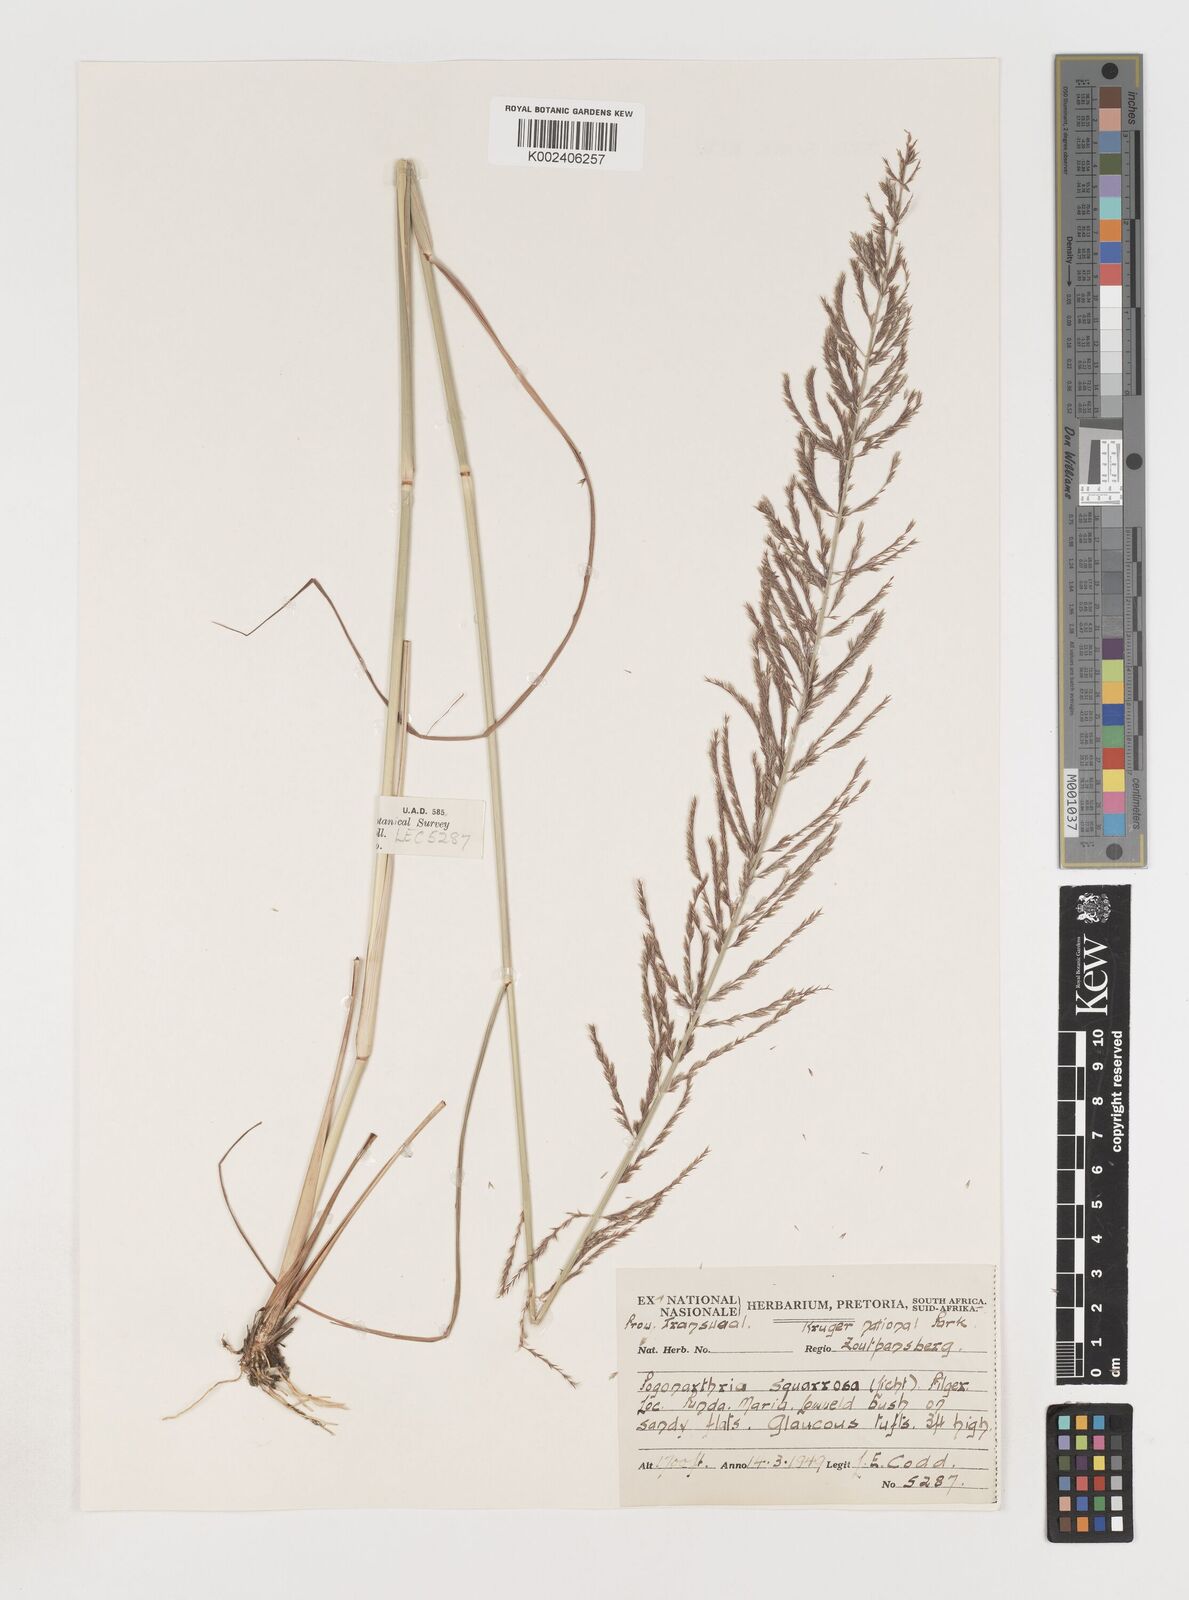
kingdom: Plantae
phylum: Tracheophyta
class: Liliopsida
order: Poales
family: Poaceae
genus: Pogonarthria
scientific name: Pogonarthria squarrosa
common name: Grass
